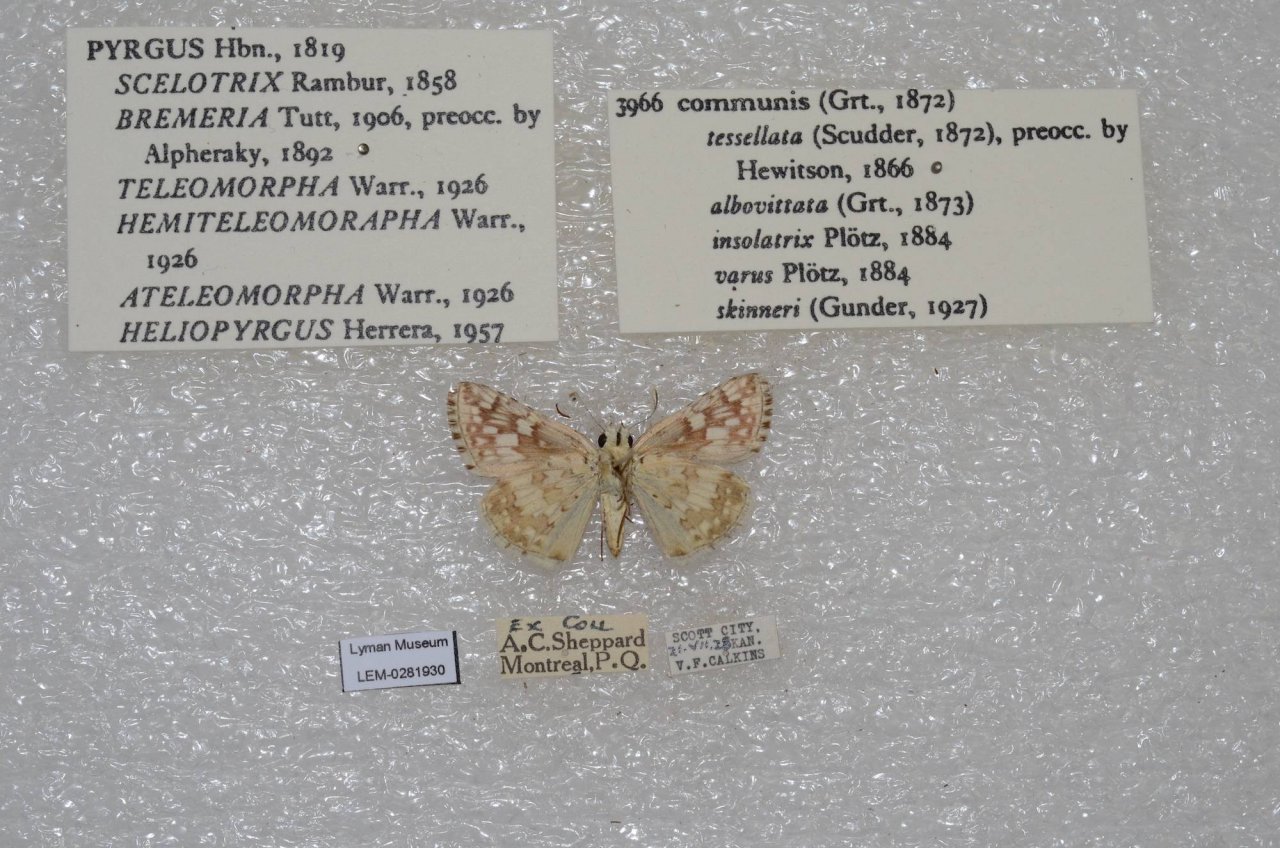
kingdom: Animalia
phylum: Arthropoda
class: Insecta
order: Lepidoptera
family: Hesperiidae
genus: Pyrgus
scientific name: Pyrgus communis
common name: Common Checkered-Skipper
